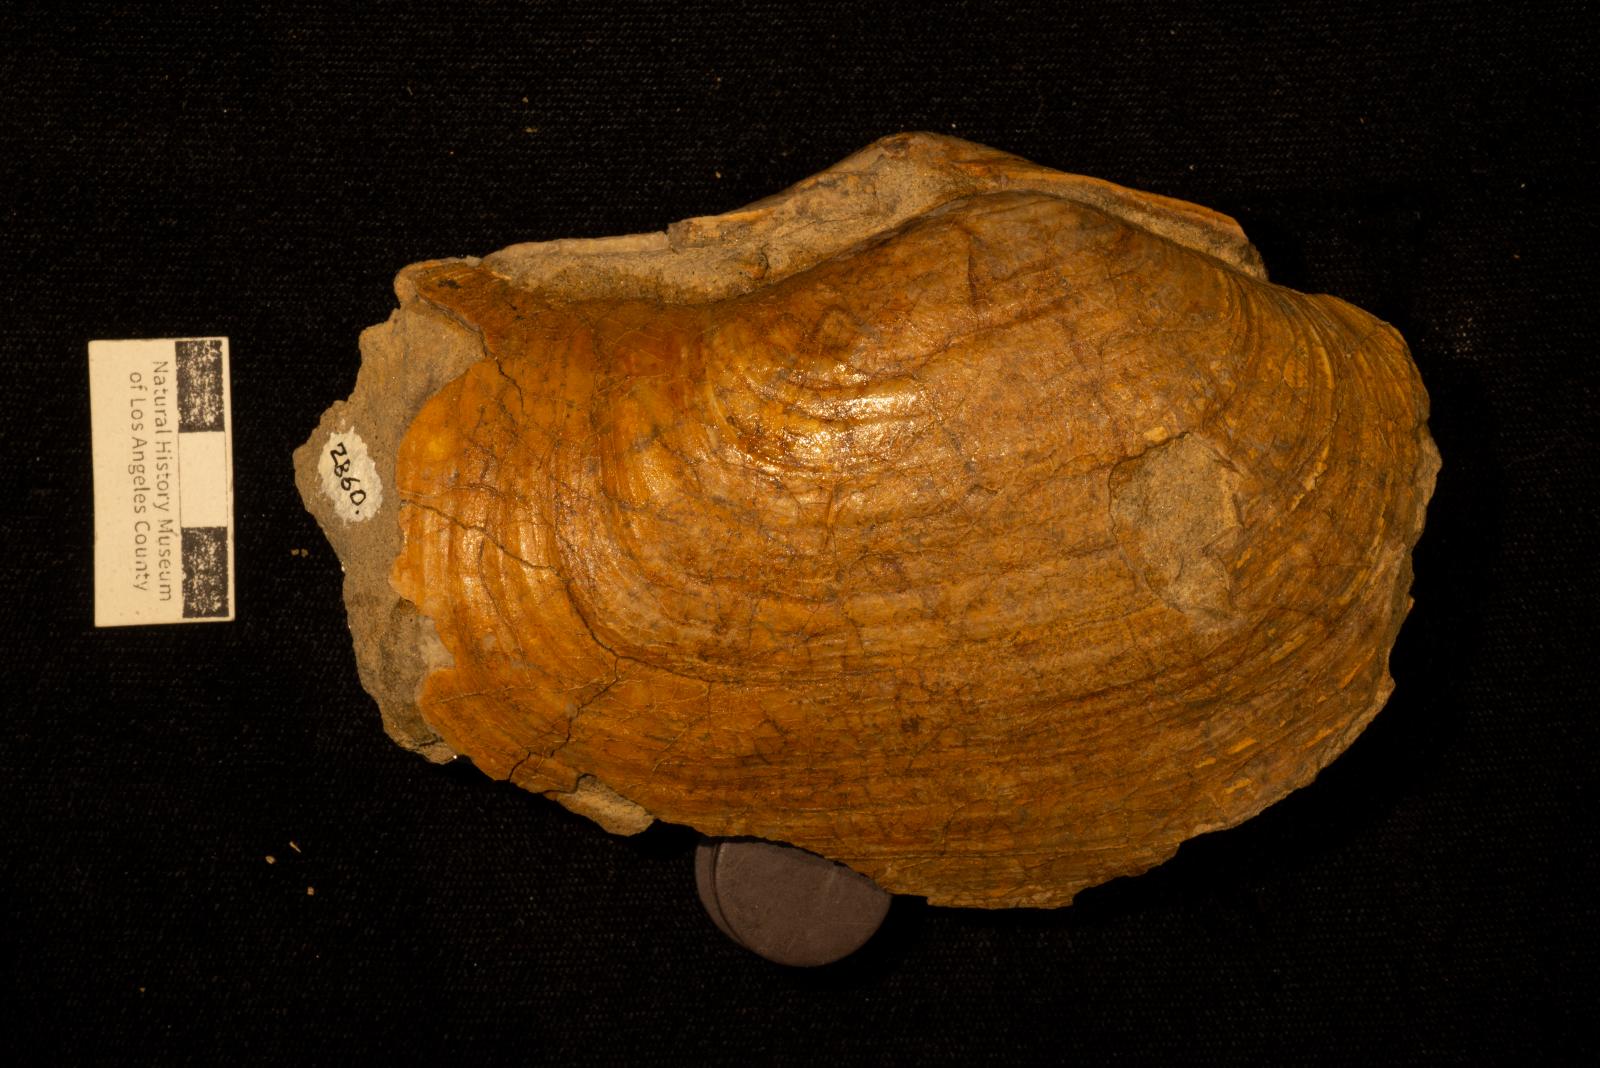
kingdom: Animalia
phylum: Mollusca
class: Bivalvia
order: Adapedonta
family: Hiatellidae
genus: Panopea
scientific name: Panopea
